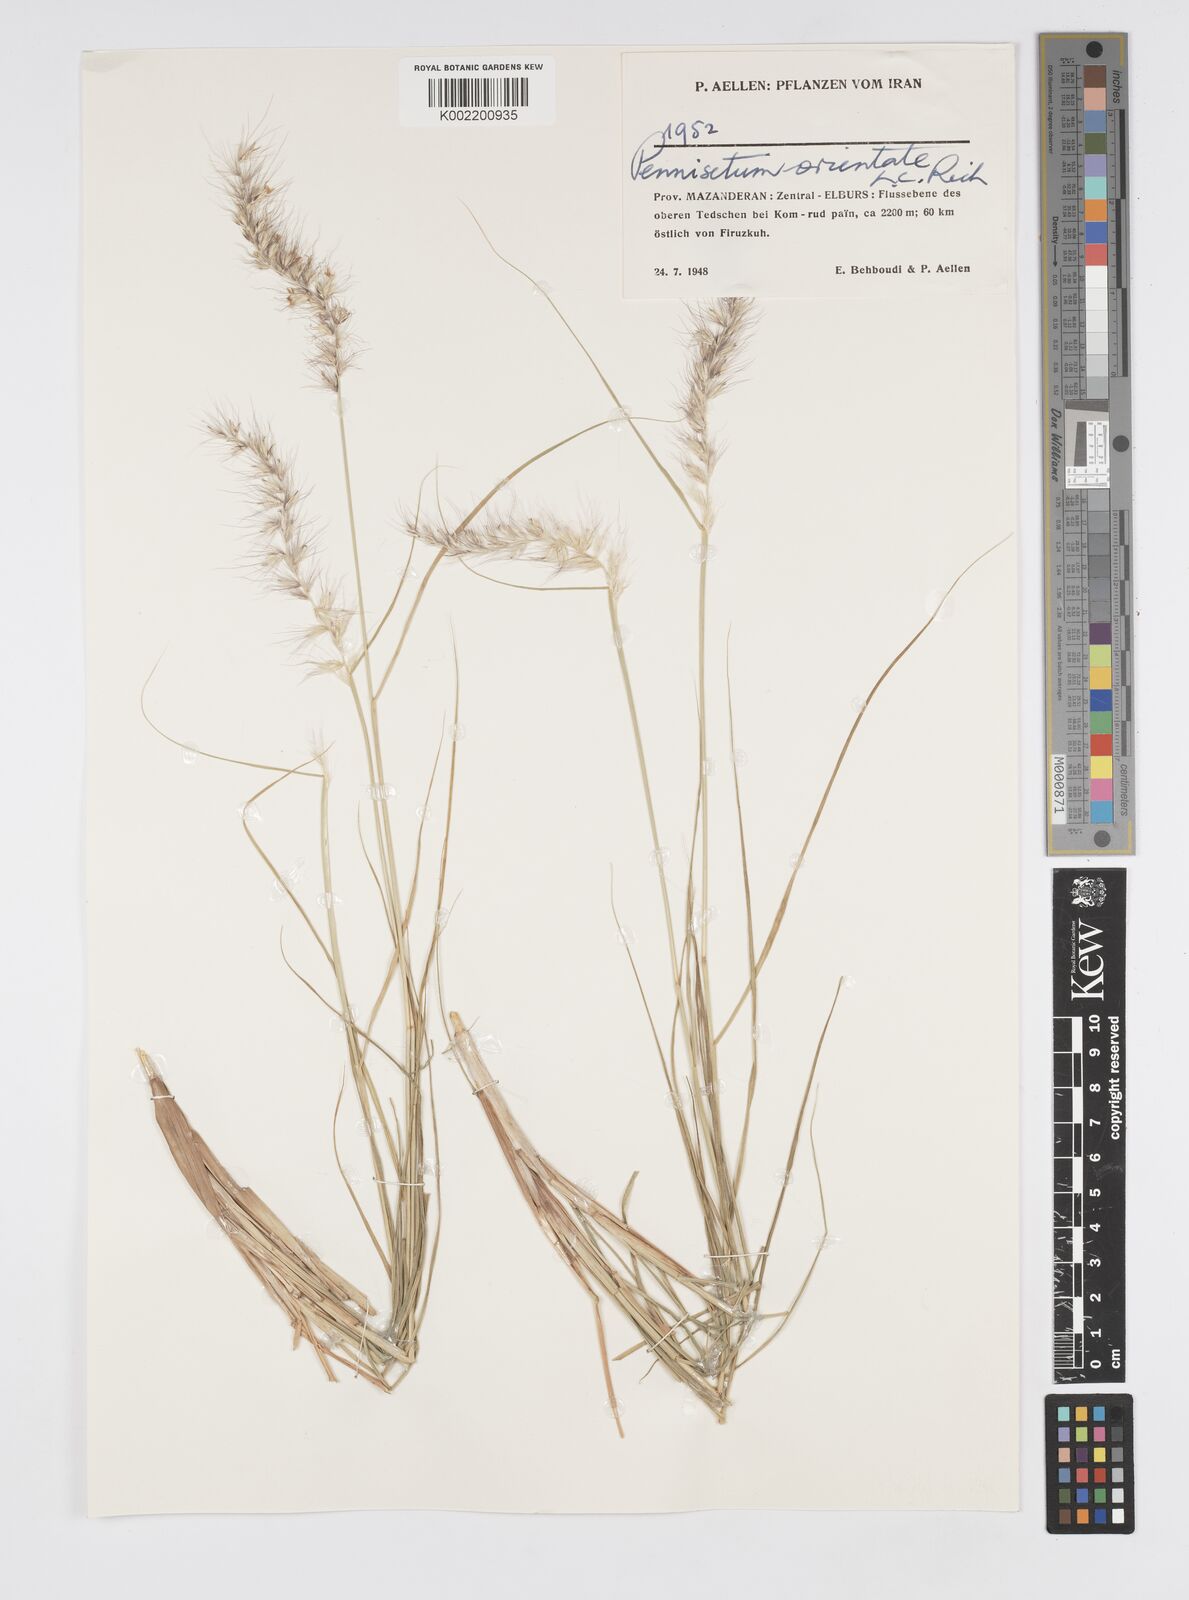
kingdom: Plantae
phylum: Tracheophyta
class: Liliopsida
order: Poales
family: Poaceae
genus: Cenchrus
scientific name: Cenchrus setaceus
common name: Crimson fountaingrass
